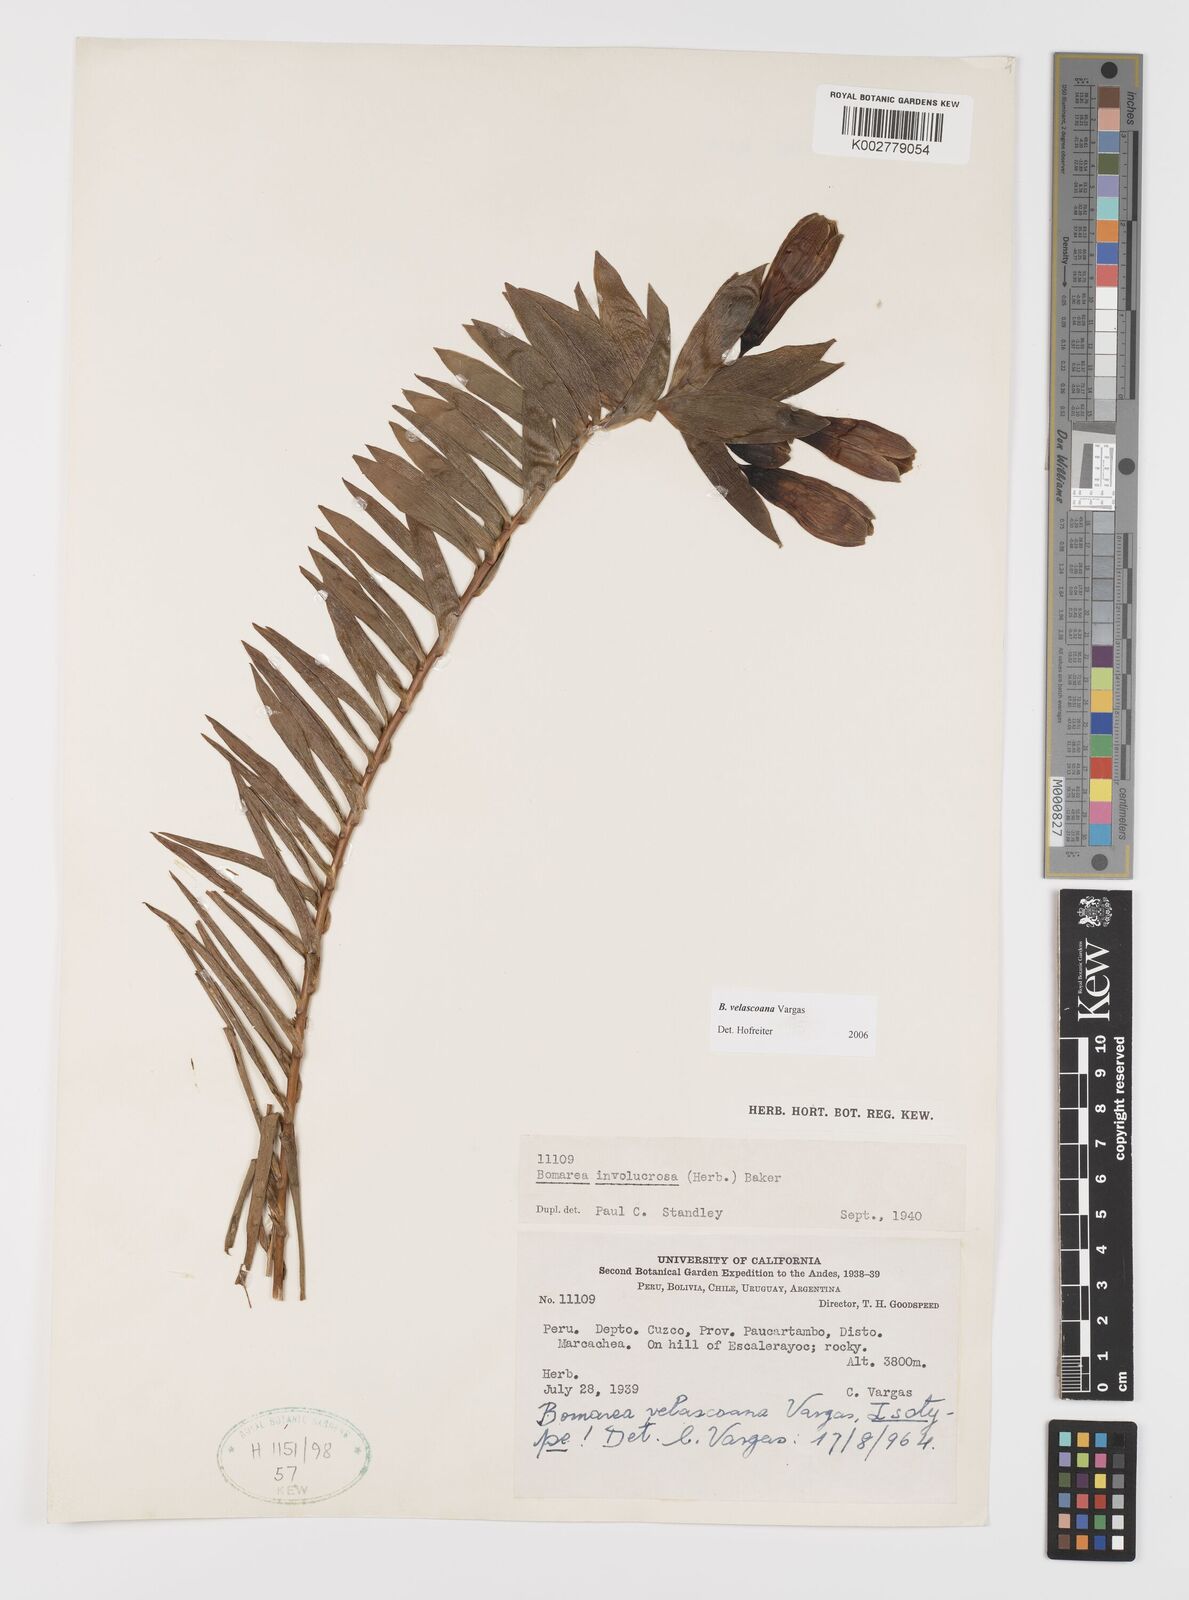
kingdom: Plantae
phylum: Tracheophyta
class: Liliopsida
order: Liliales
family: Alstroemeriaceae
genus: Bomarea
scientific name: Bomarea velascoana
